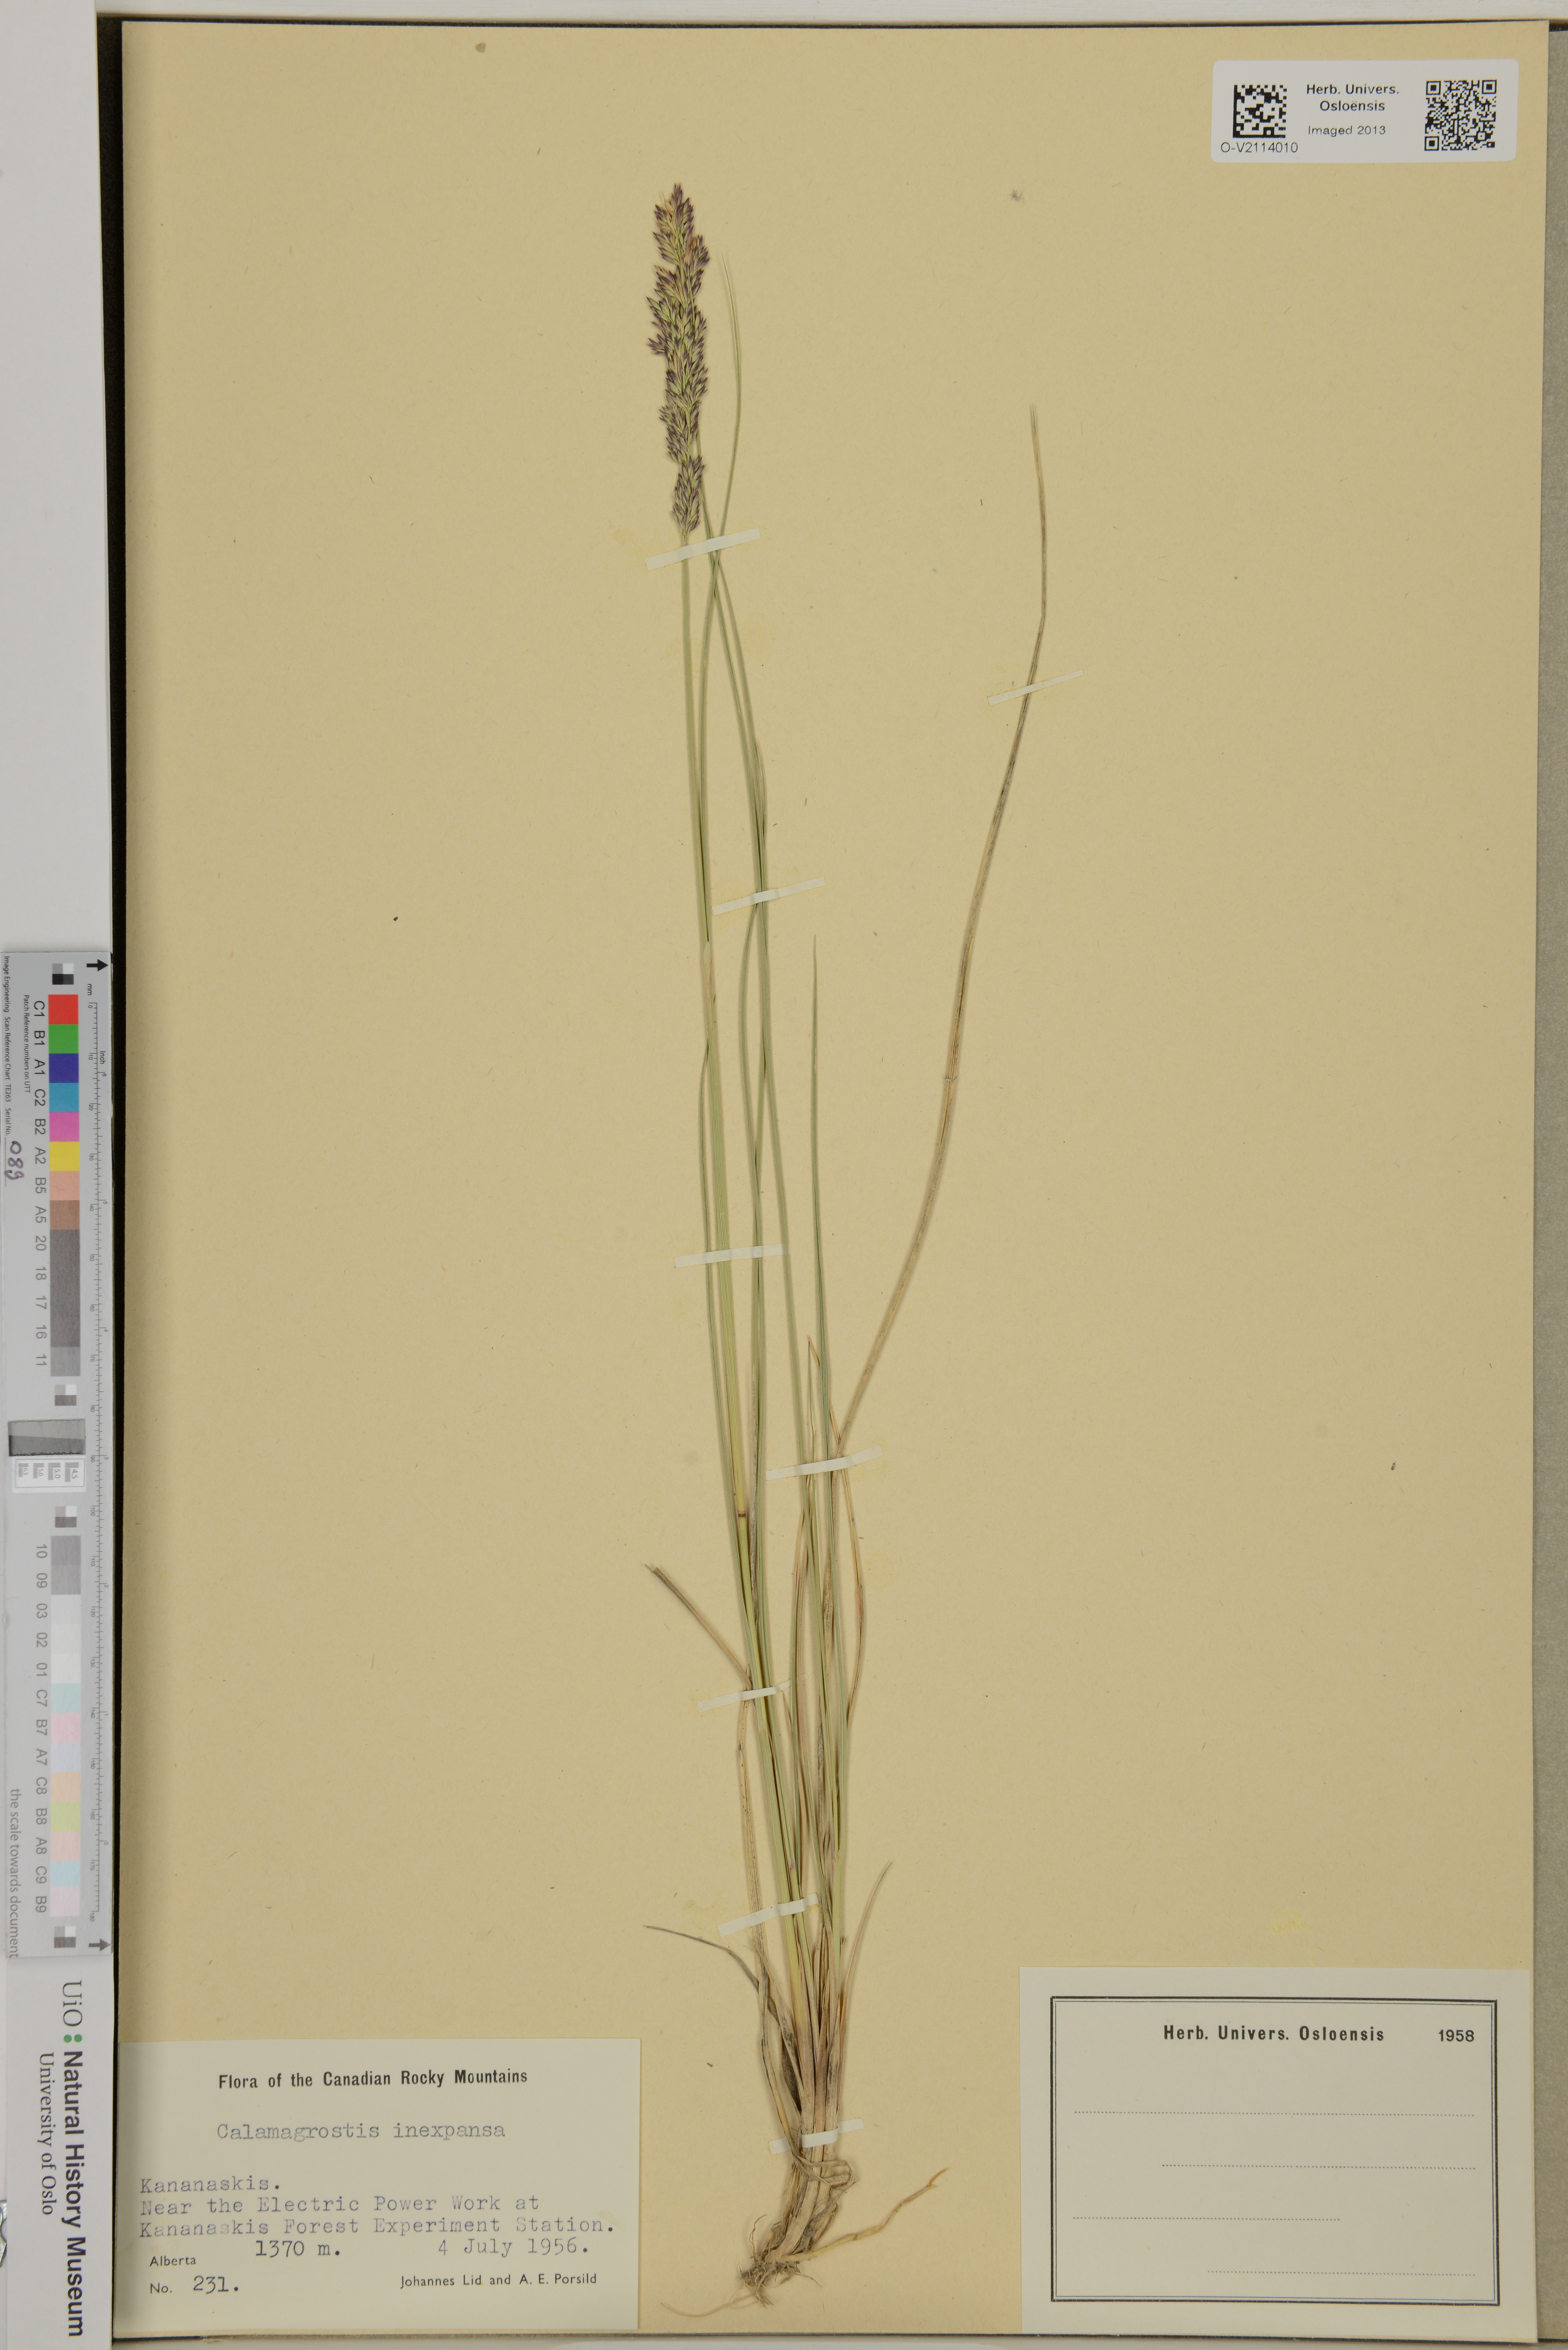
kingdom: Plantae
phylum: Tracheophyta
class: Liliopsida
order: Poales
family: Poaceae
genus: Calamagrostis
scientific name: Calamagrostis inexpansa
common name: Northern reedgrass
